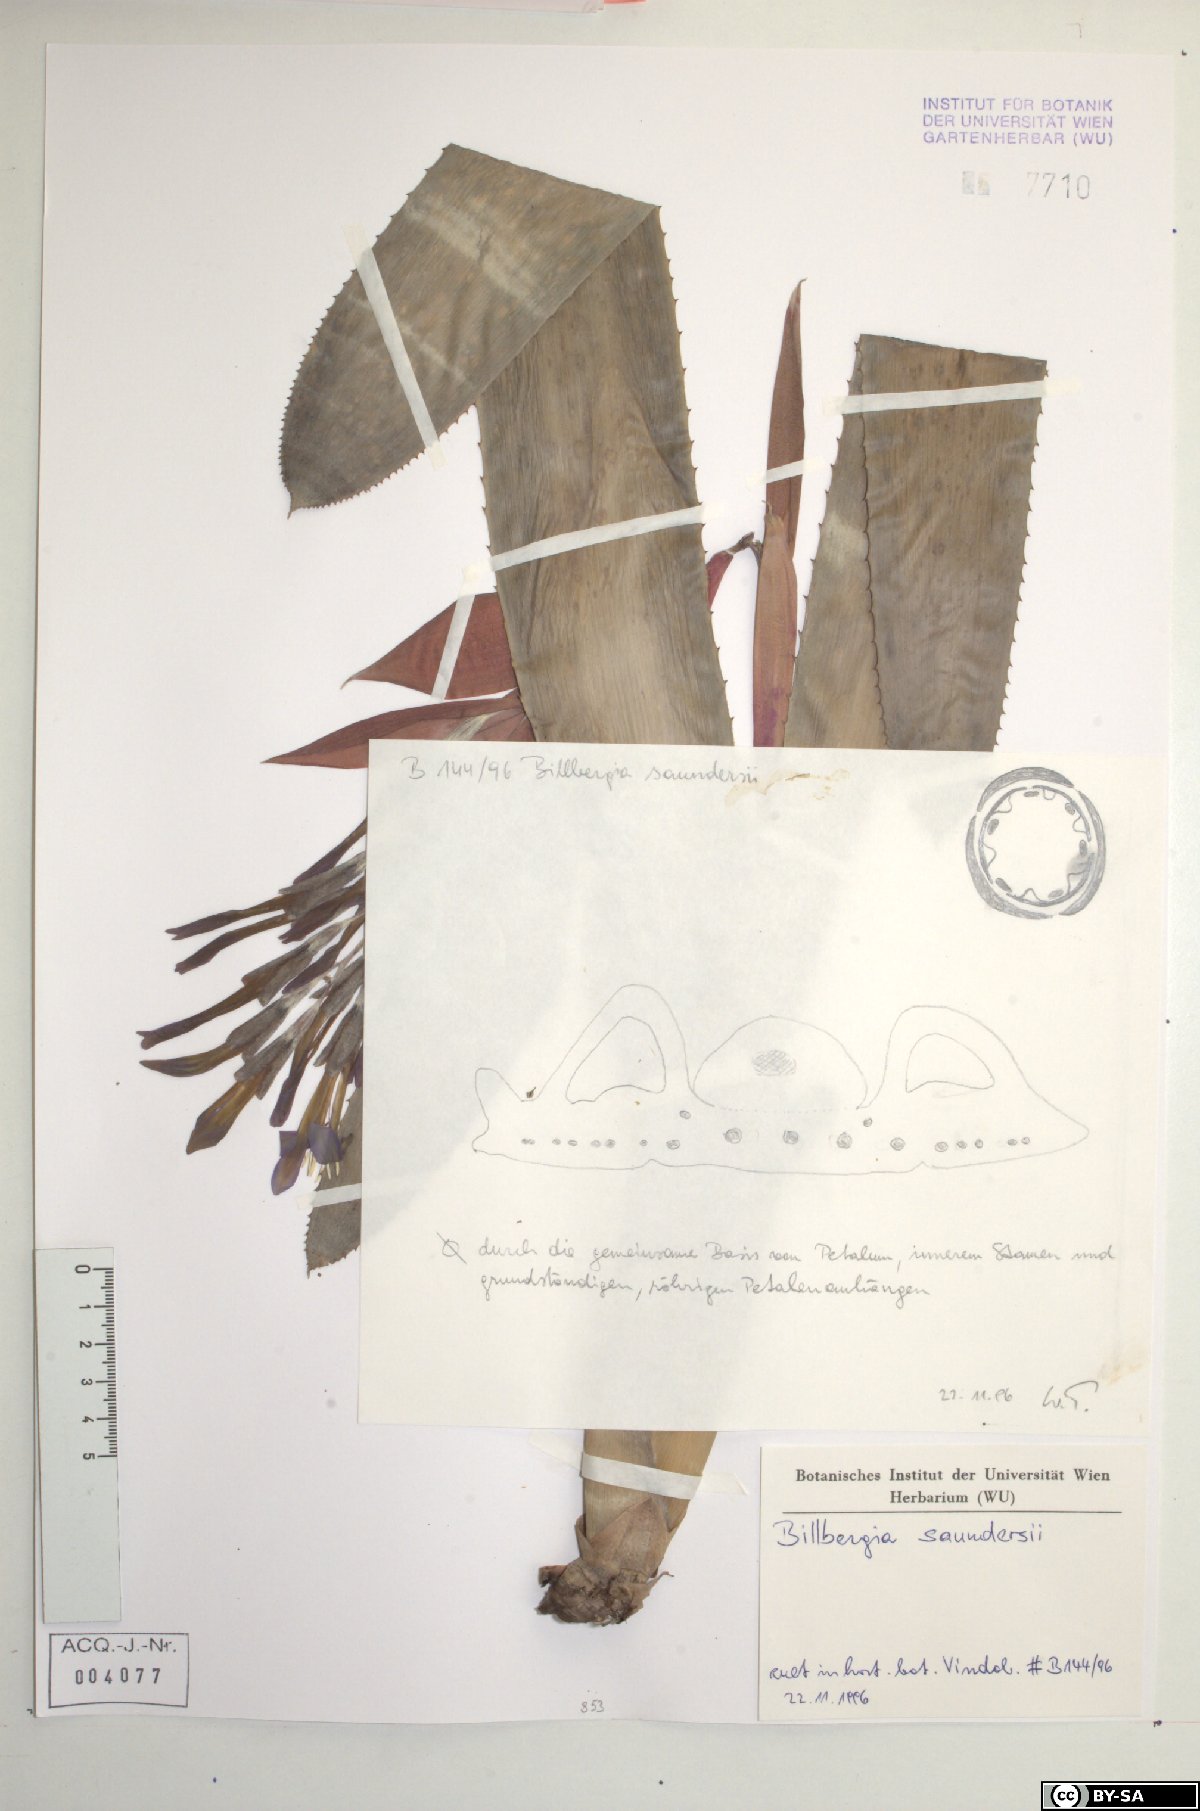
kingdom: Plantae
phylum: Tracheophyta
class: Liliopsida
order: Poales
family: Bromeliaceae
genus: Billbergia
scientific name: Billbergia saundersii
